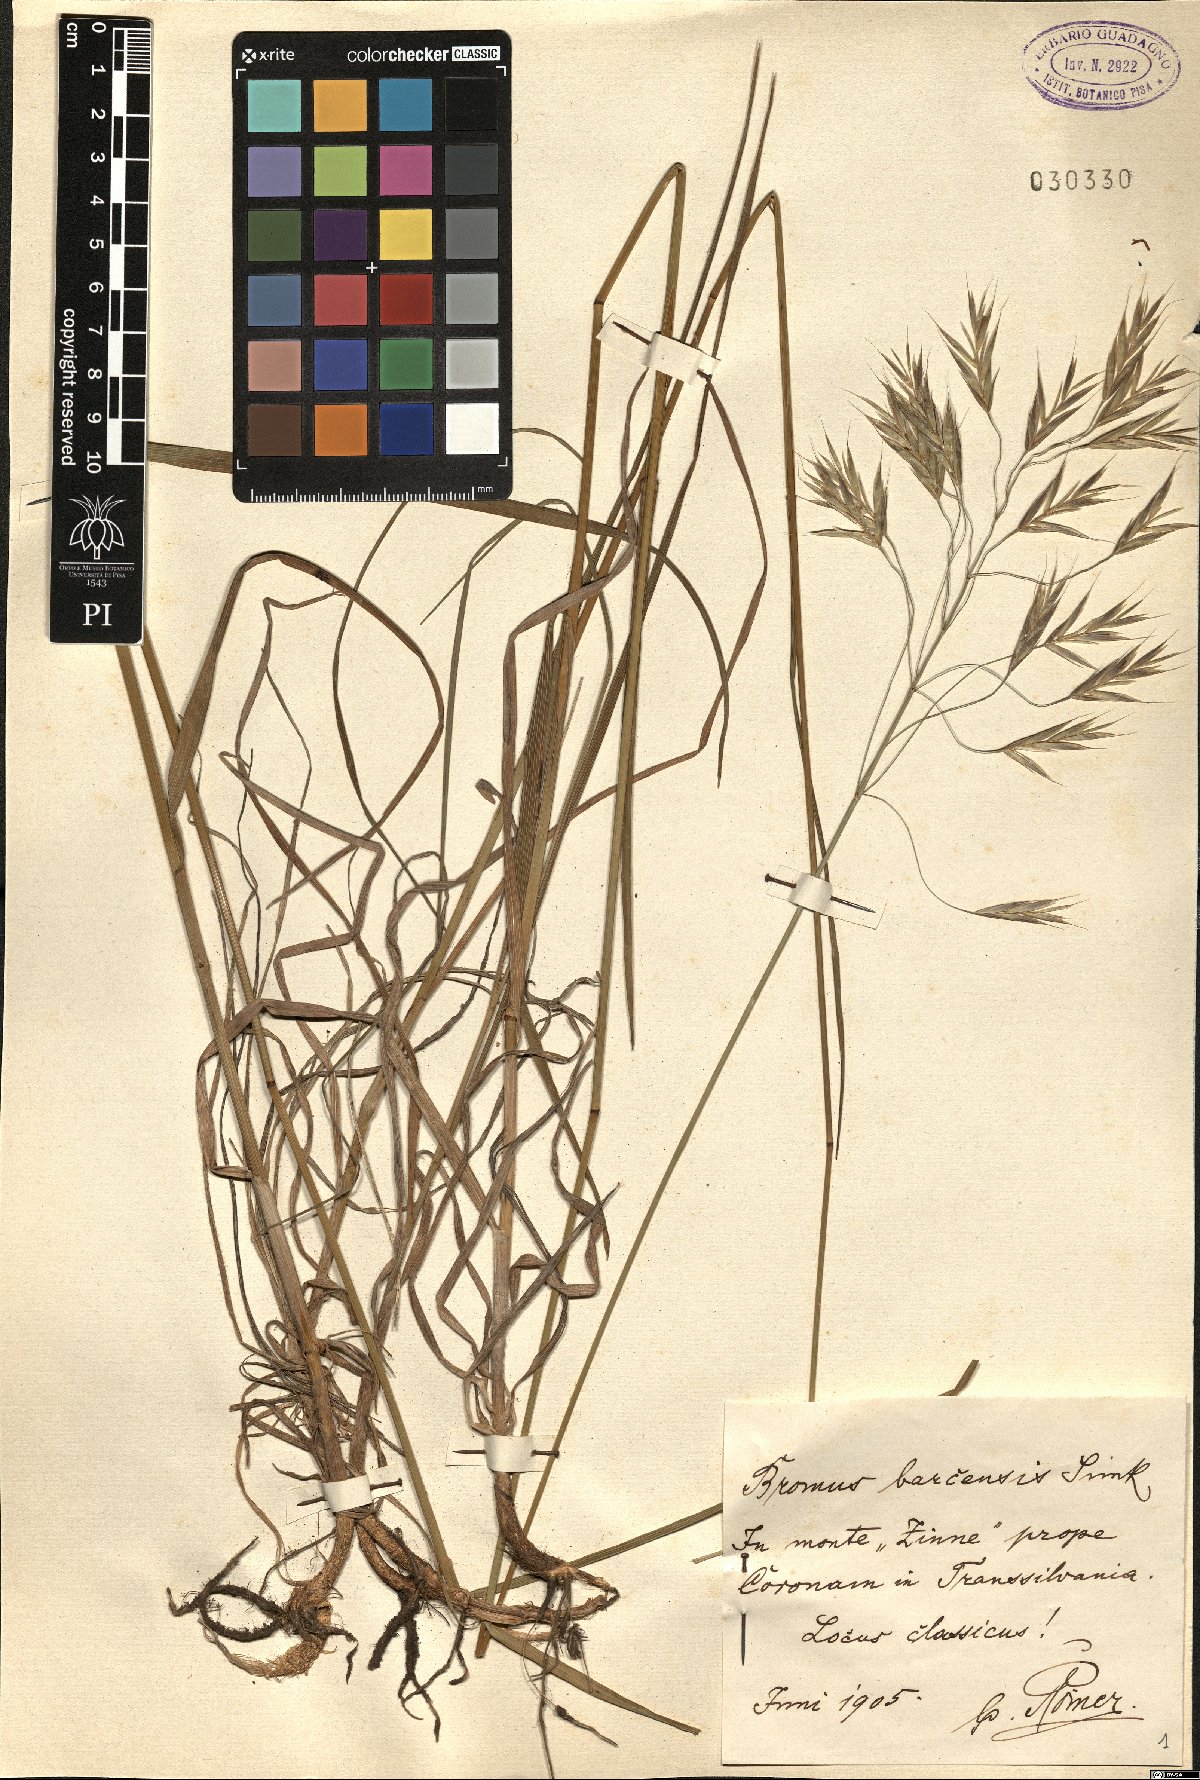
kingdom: Plantae
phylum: Tracheophyta
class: Liliopsida
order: Poales
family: Poaceae
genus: Bromus
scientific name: Bromus riparius
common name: Meadow brome
